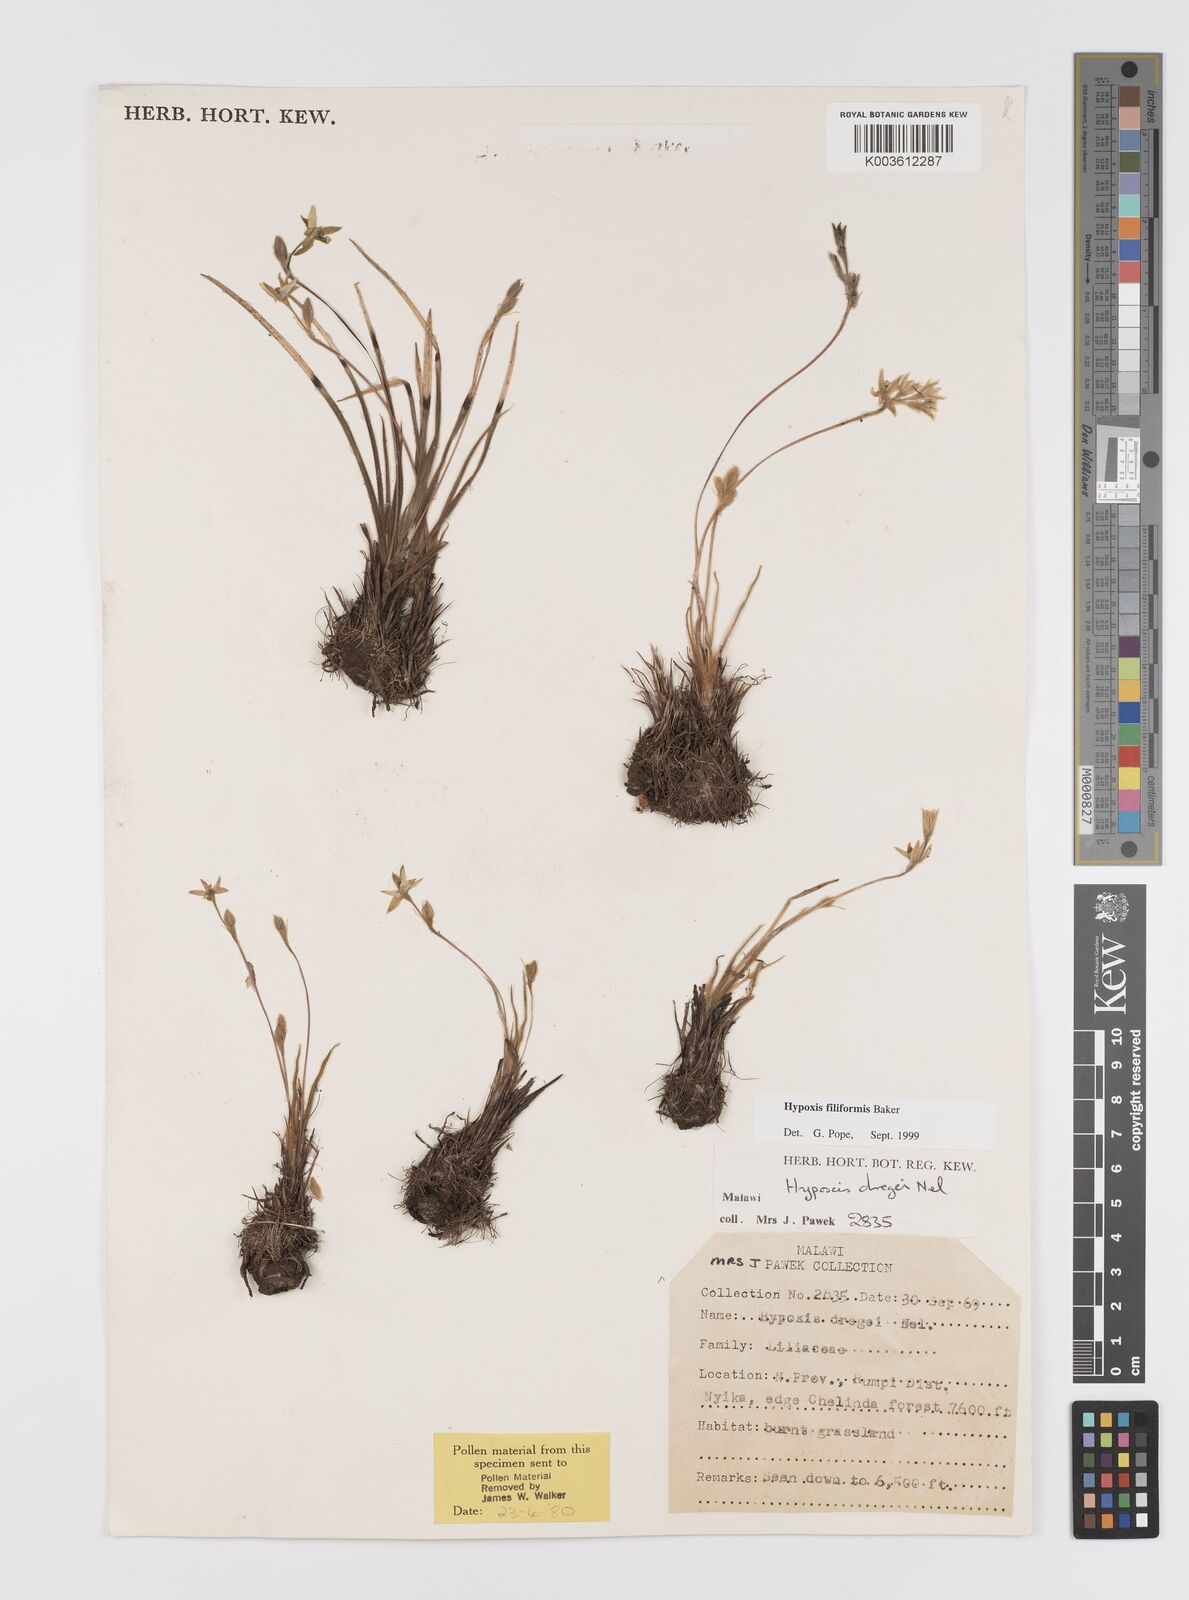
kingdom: Plantae
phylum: Tracheophyta
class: Liliopsida
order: Asparagales
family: Hypoxidaceae
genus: Hypoxis
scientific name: Hypoxis filiformis
